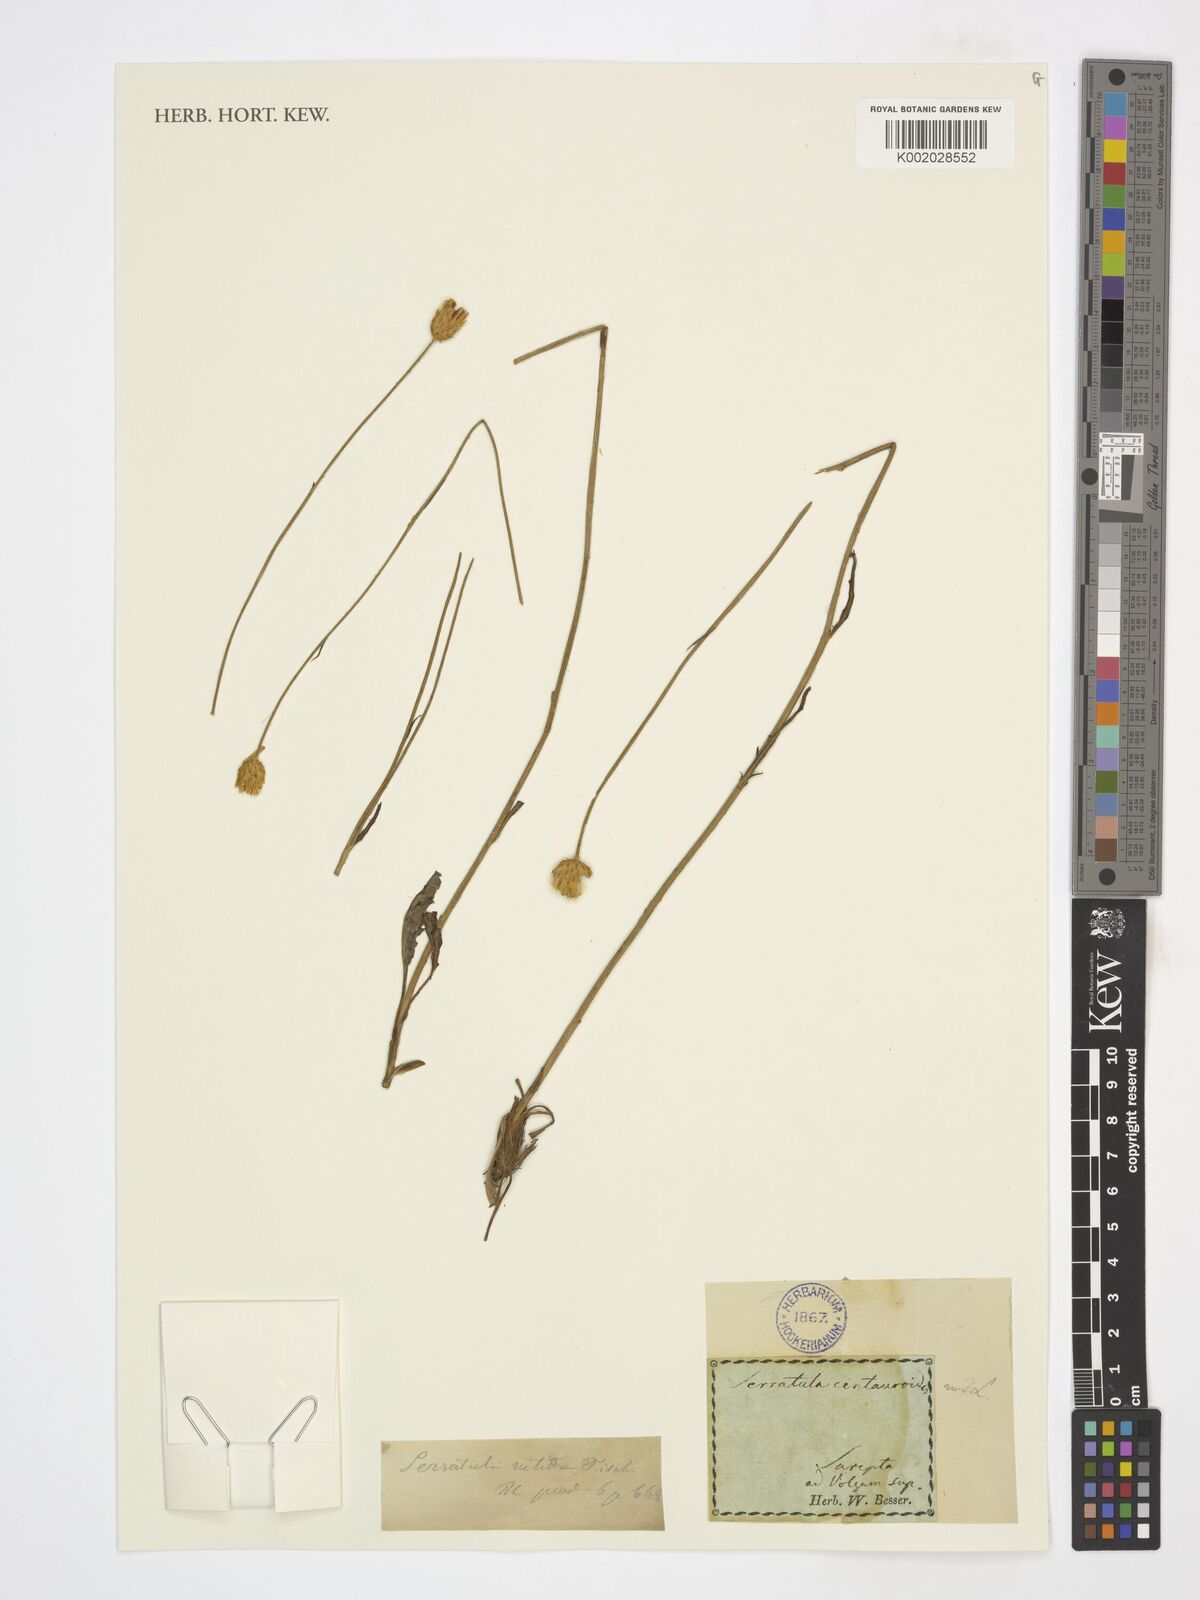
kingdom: Plantae
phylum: Tracheophyta
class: Magnoliopsida
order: Asterales
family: Asteraceae
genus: Klasea
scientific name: Klasea centauroides
